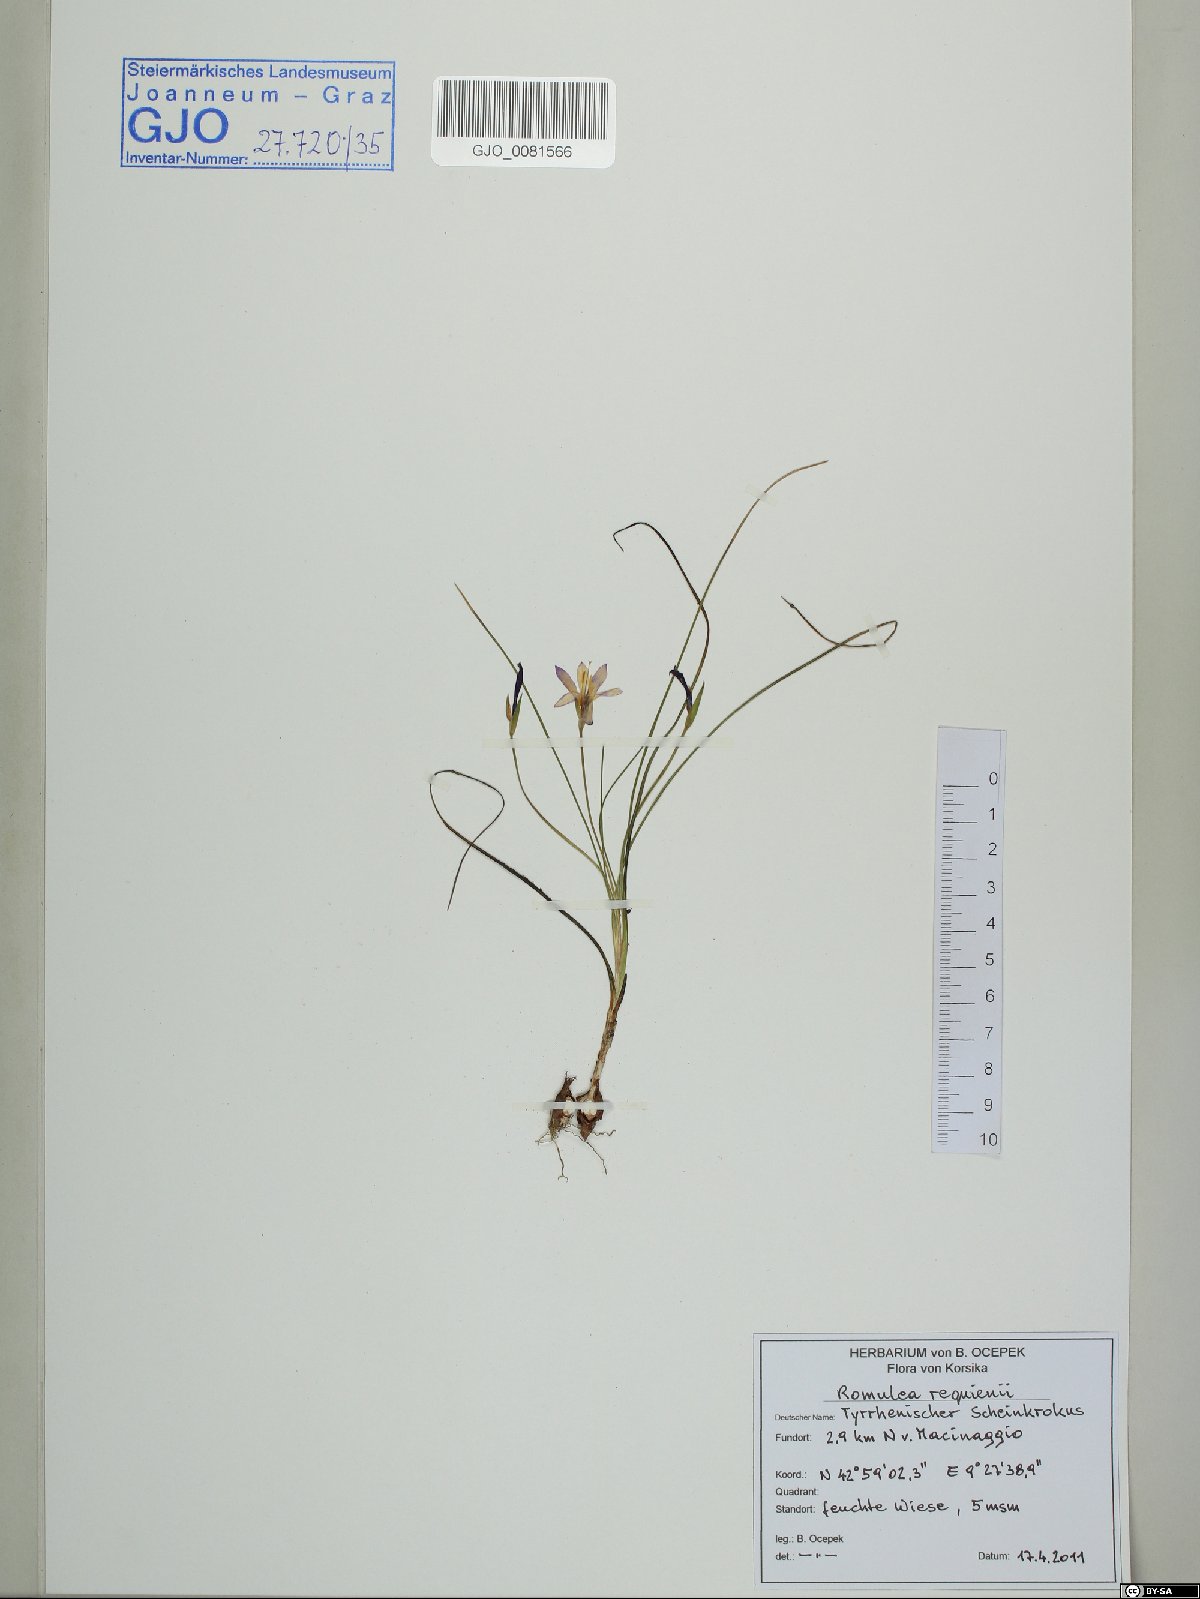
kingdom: Plantae
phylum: Tracheophyta
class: Liliopsida
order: Asparagales
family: Iridaceae
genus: Romulea
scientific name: Romulea requienii
